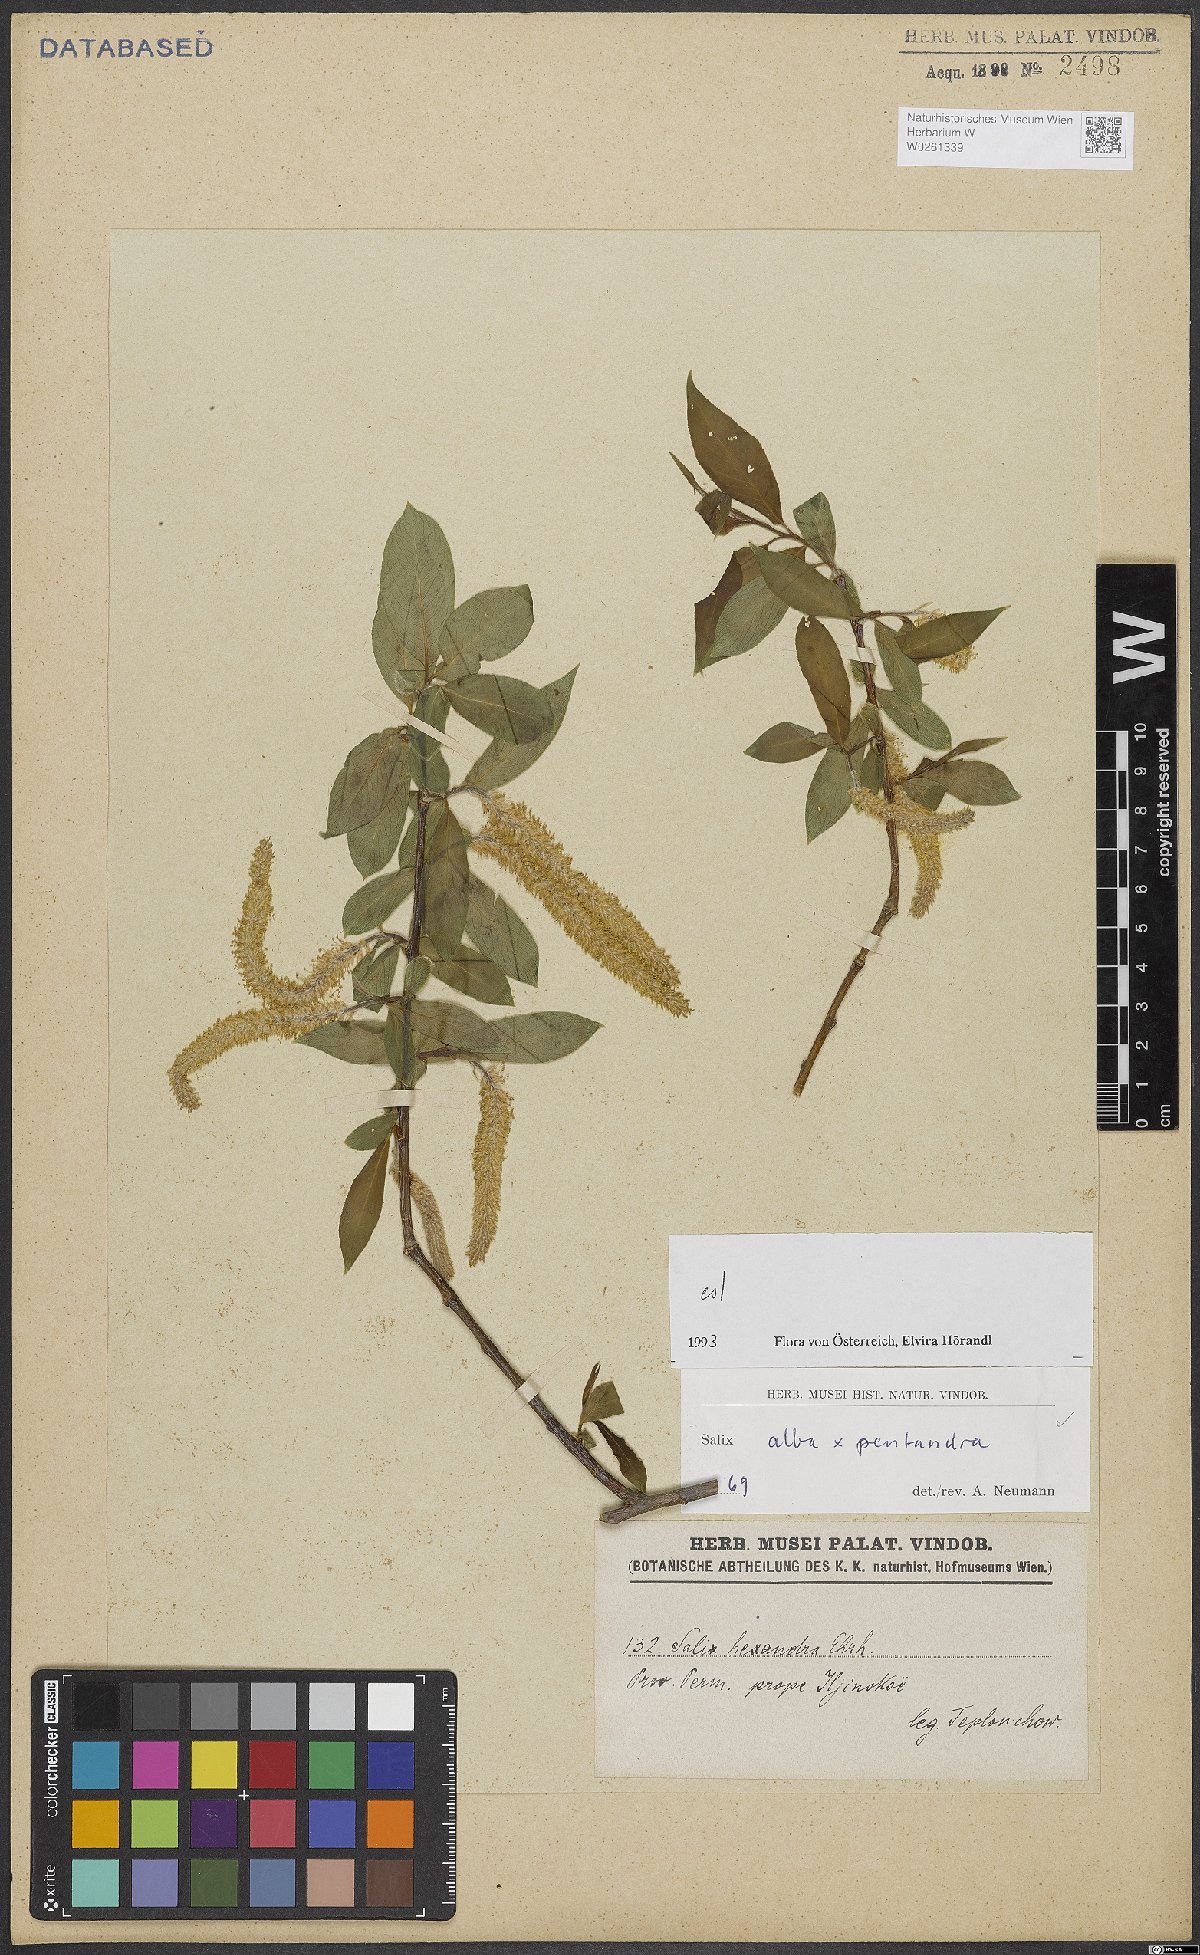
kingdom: Plantae
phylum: Tracheophyta
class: Magnoliopsida
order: Malpighiales
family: Salicaceae
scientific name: Salicaceae
